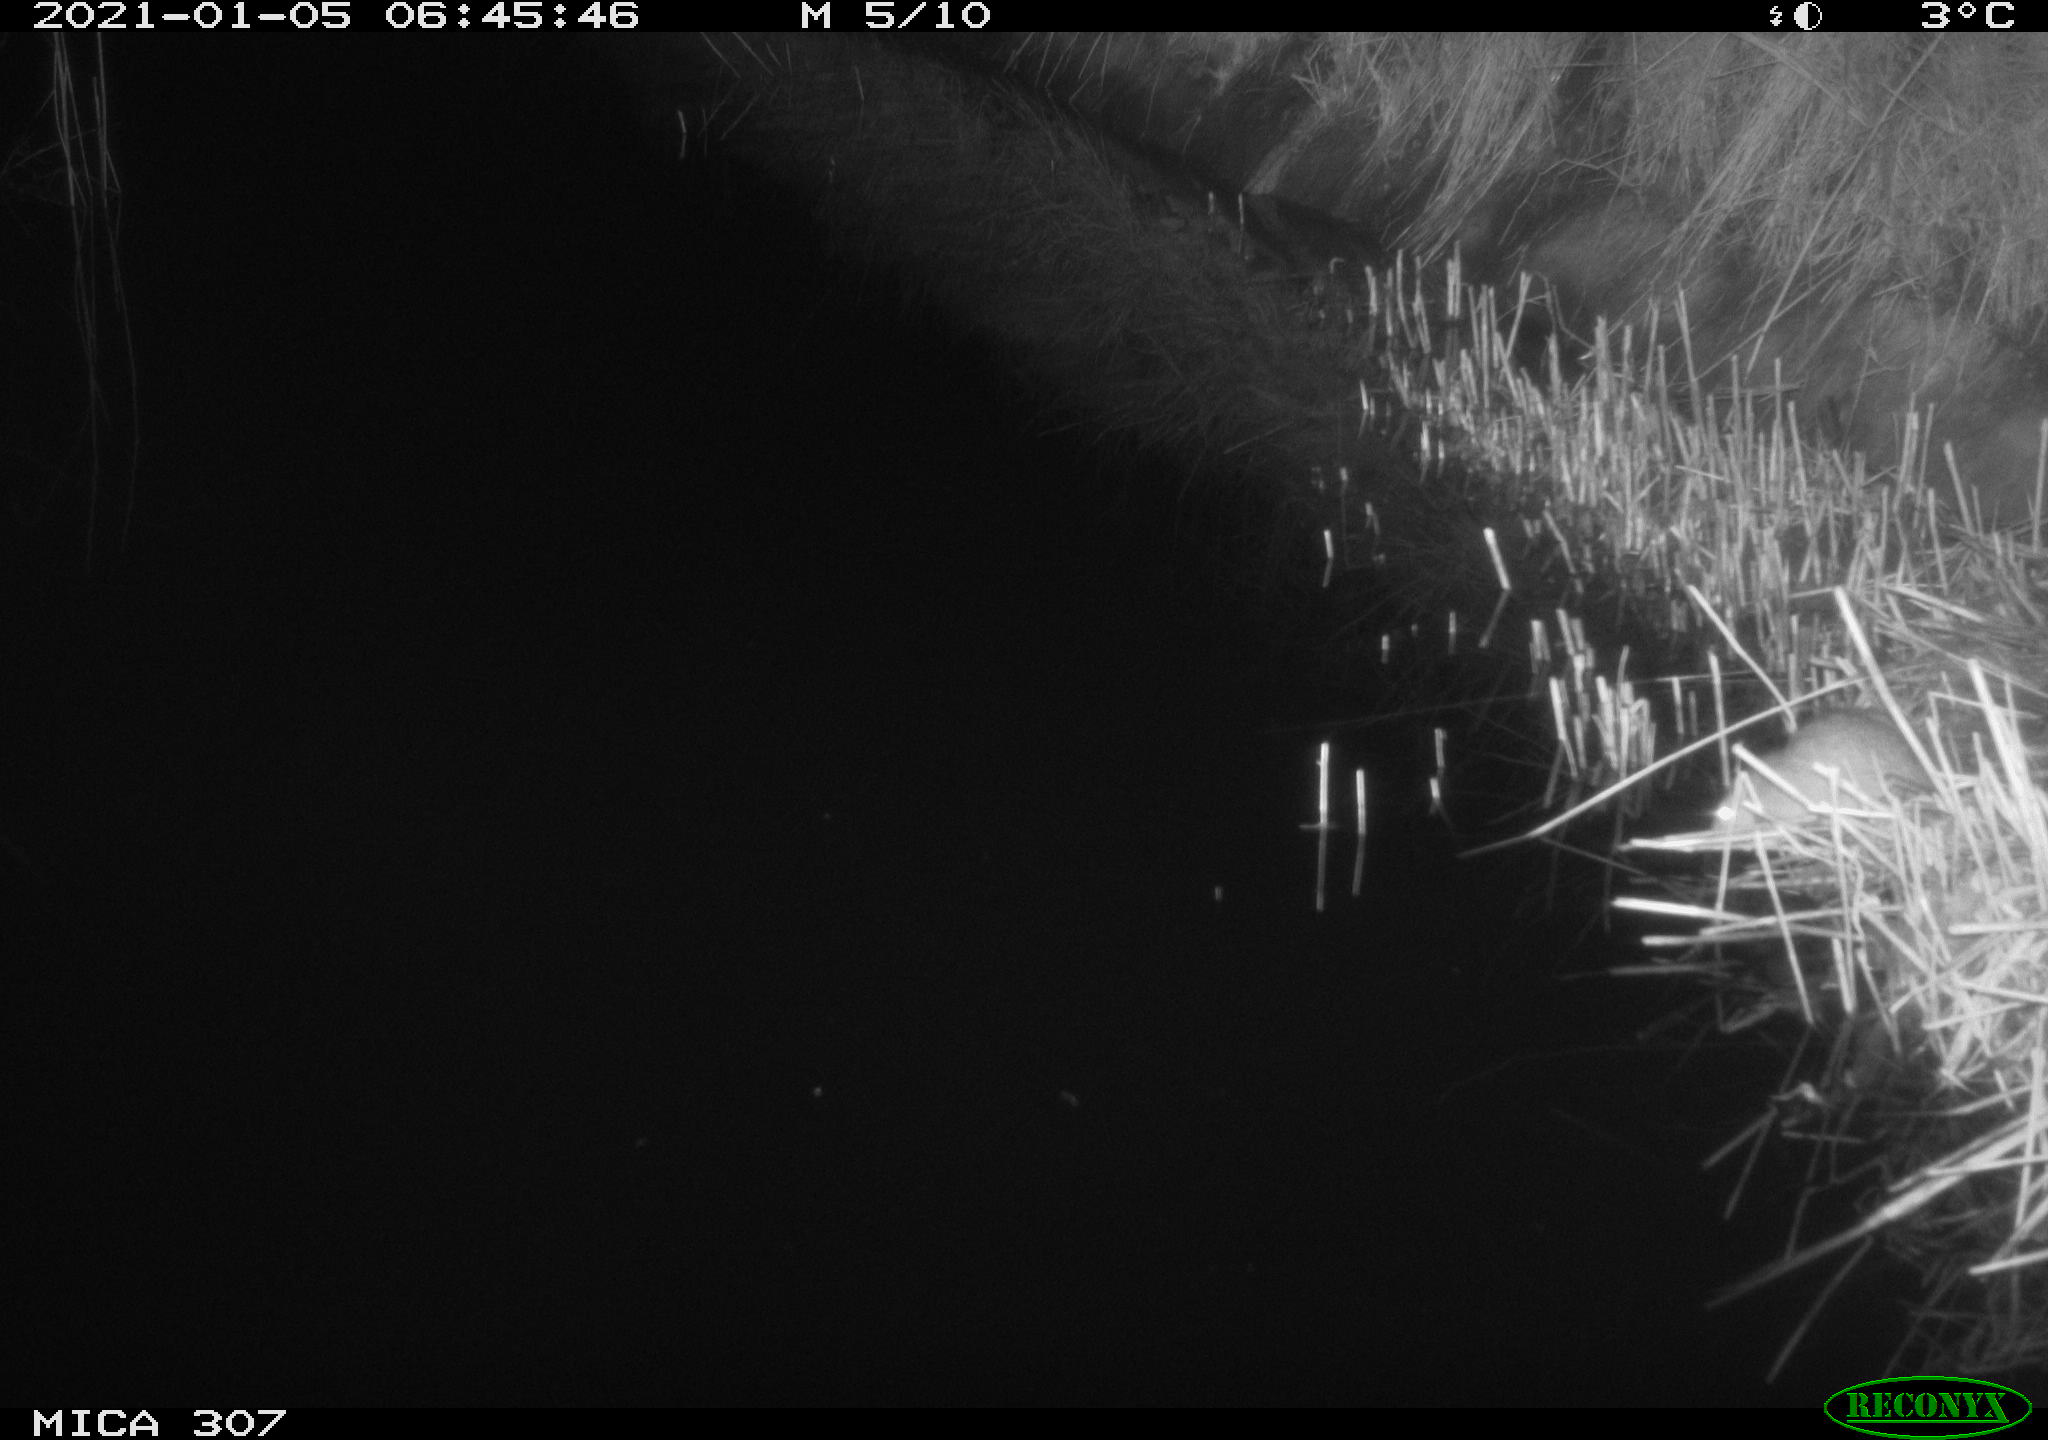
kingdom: Animalia
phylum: Chordata
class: Mammalia
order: Rodentia
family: Muridae
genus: Rattus
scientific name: Rattus norvegicus
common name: Brown rat
